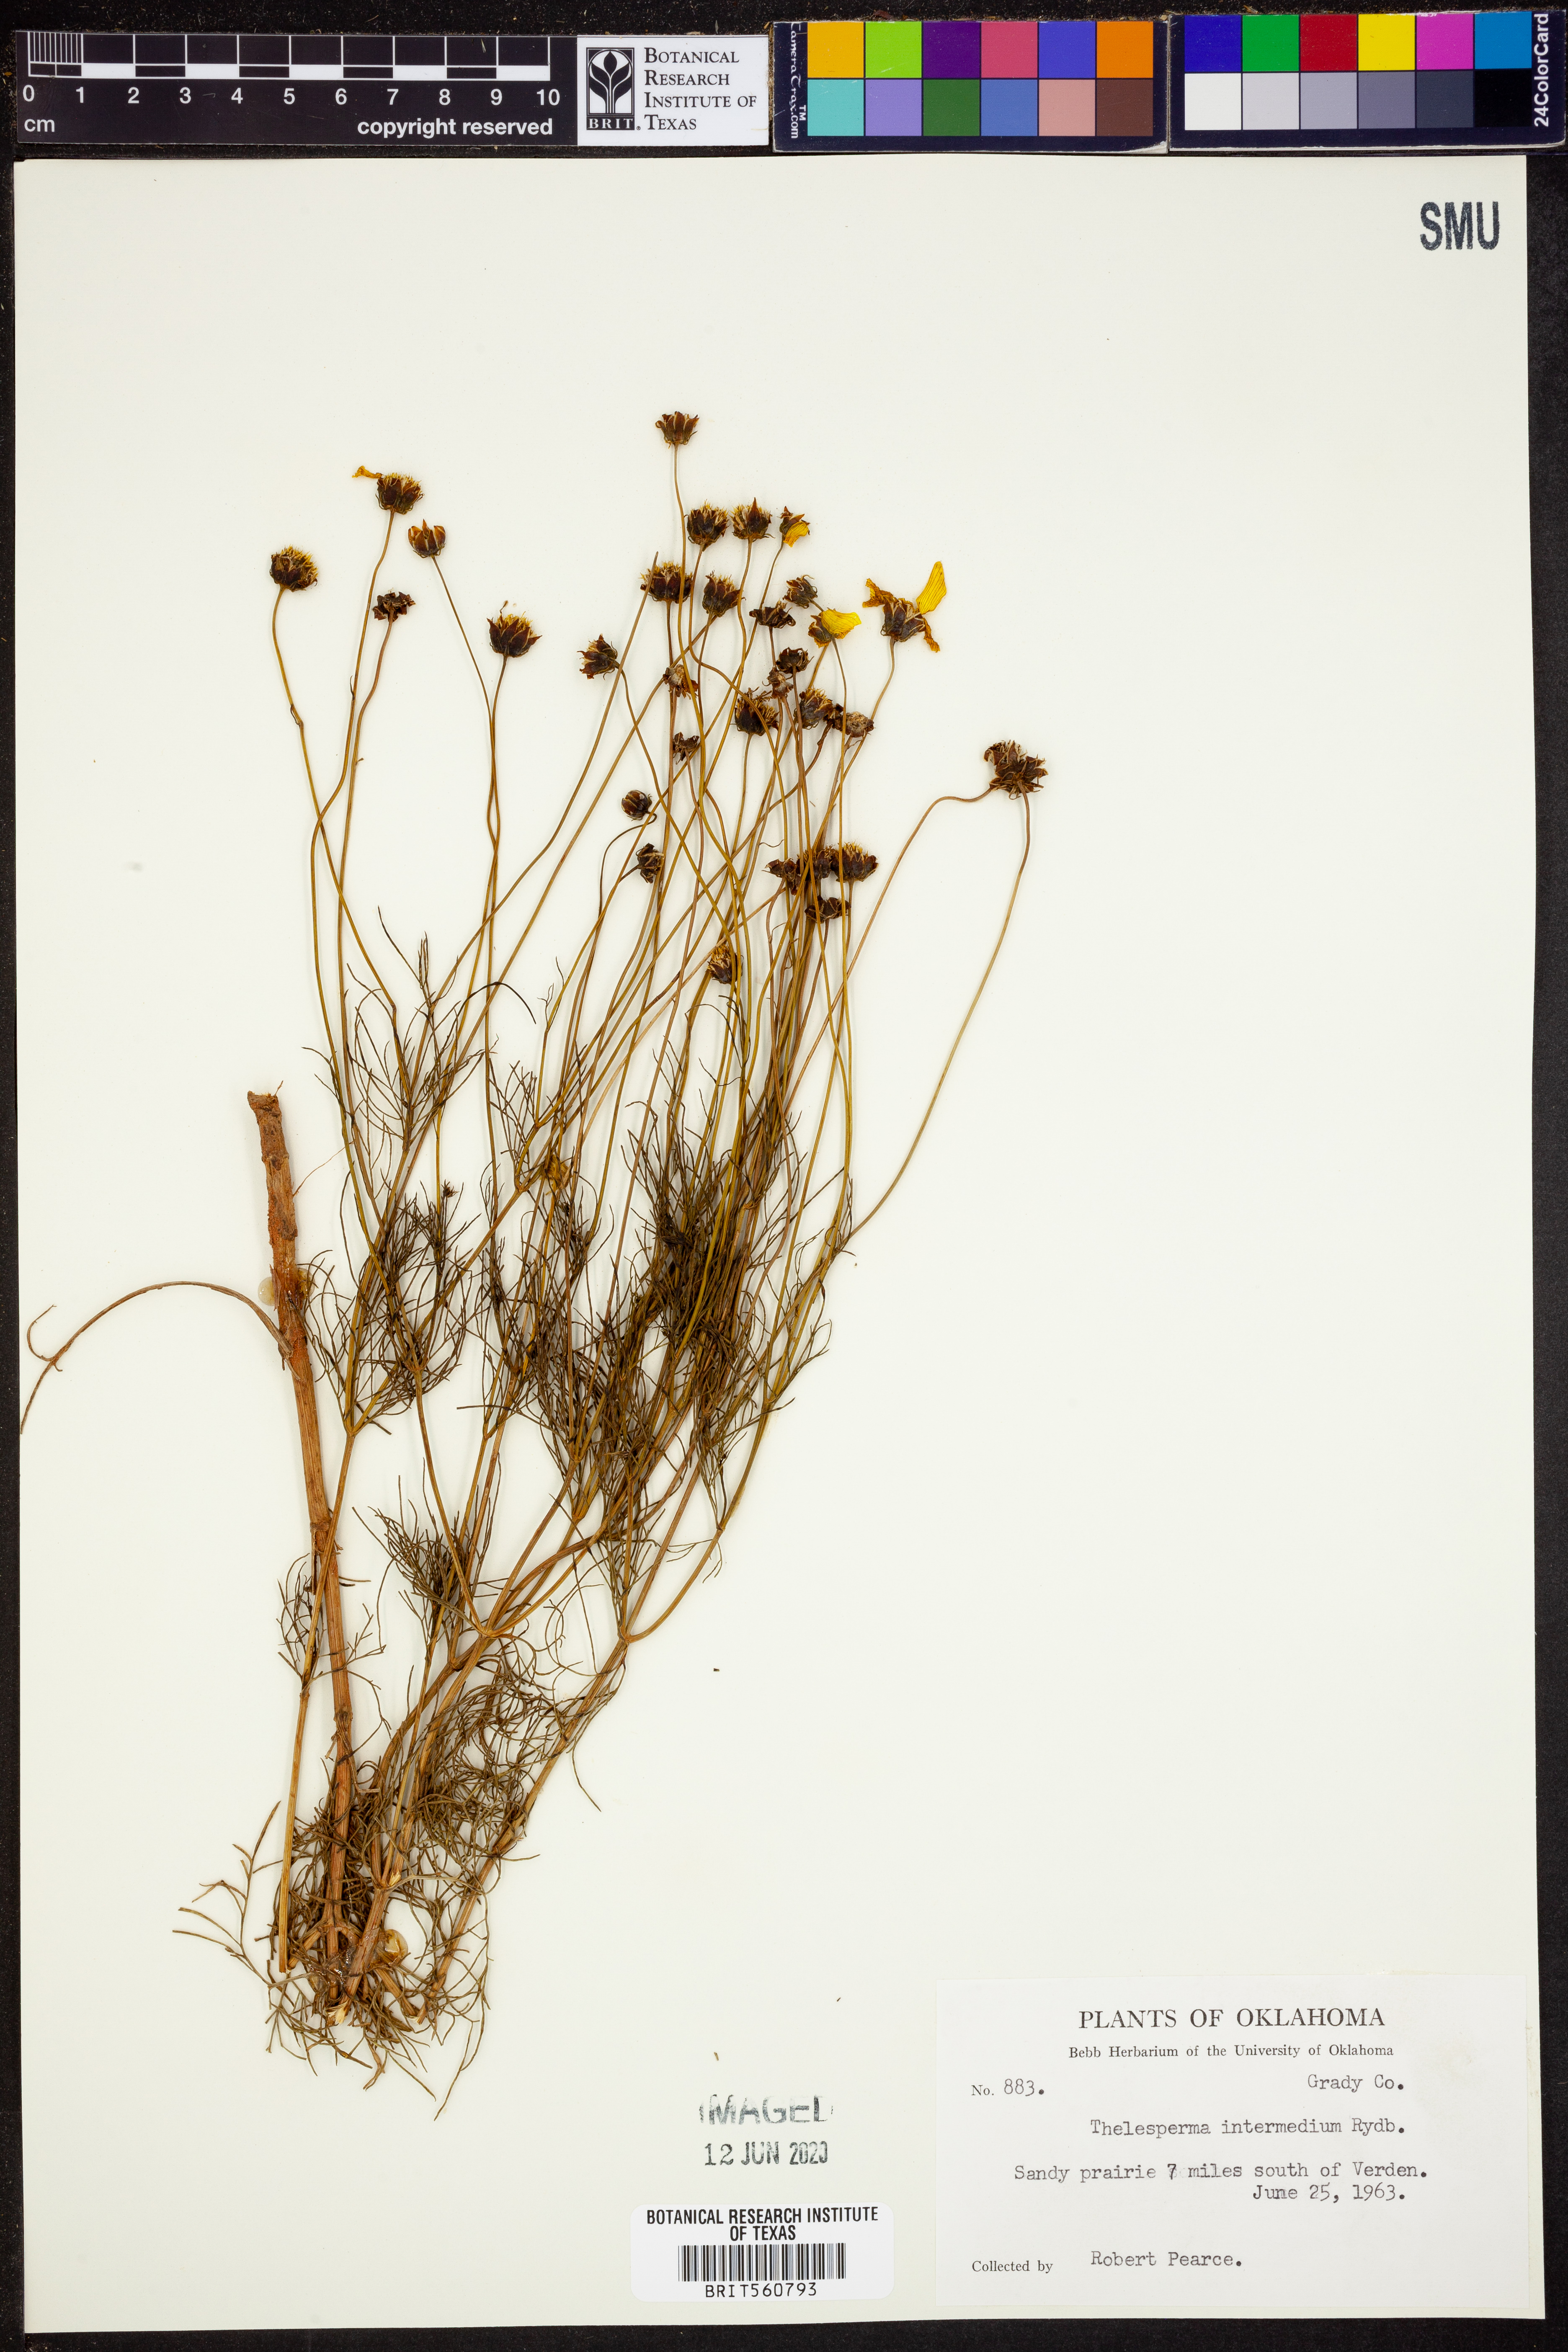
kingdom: Plantae
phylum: Tracheophyta
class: Magnoliopsida
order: Asterales
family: Asteraceae
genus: Thelesperma
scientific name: Thelesperma filifolium
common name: Stiff greenthread
